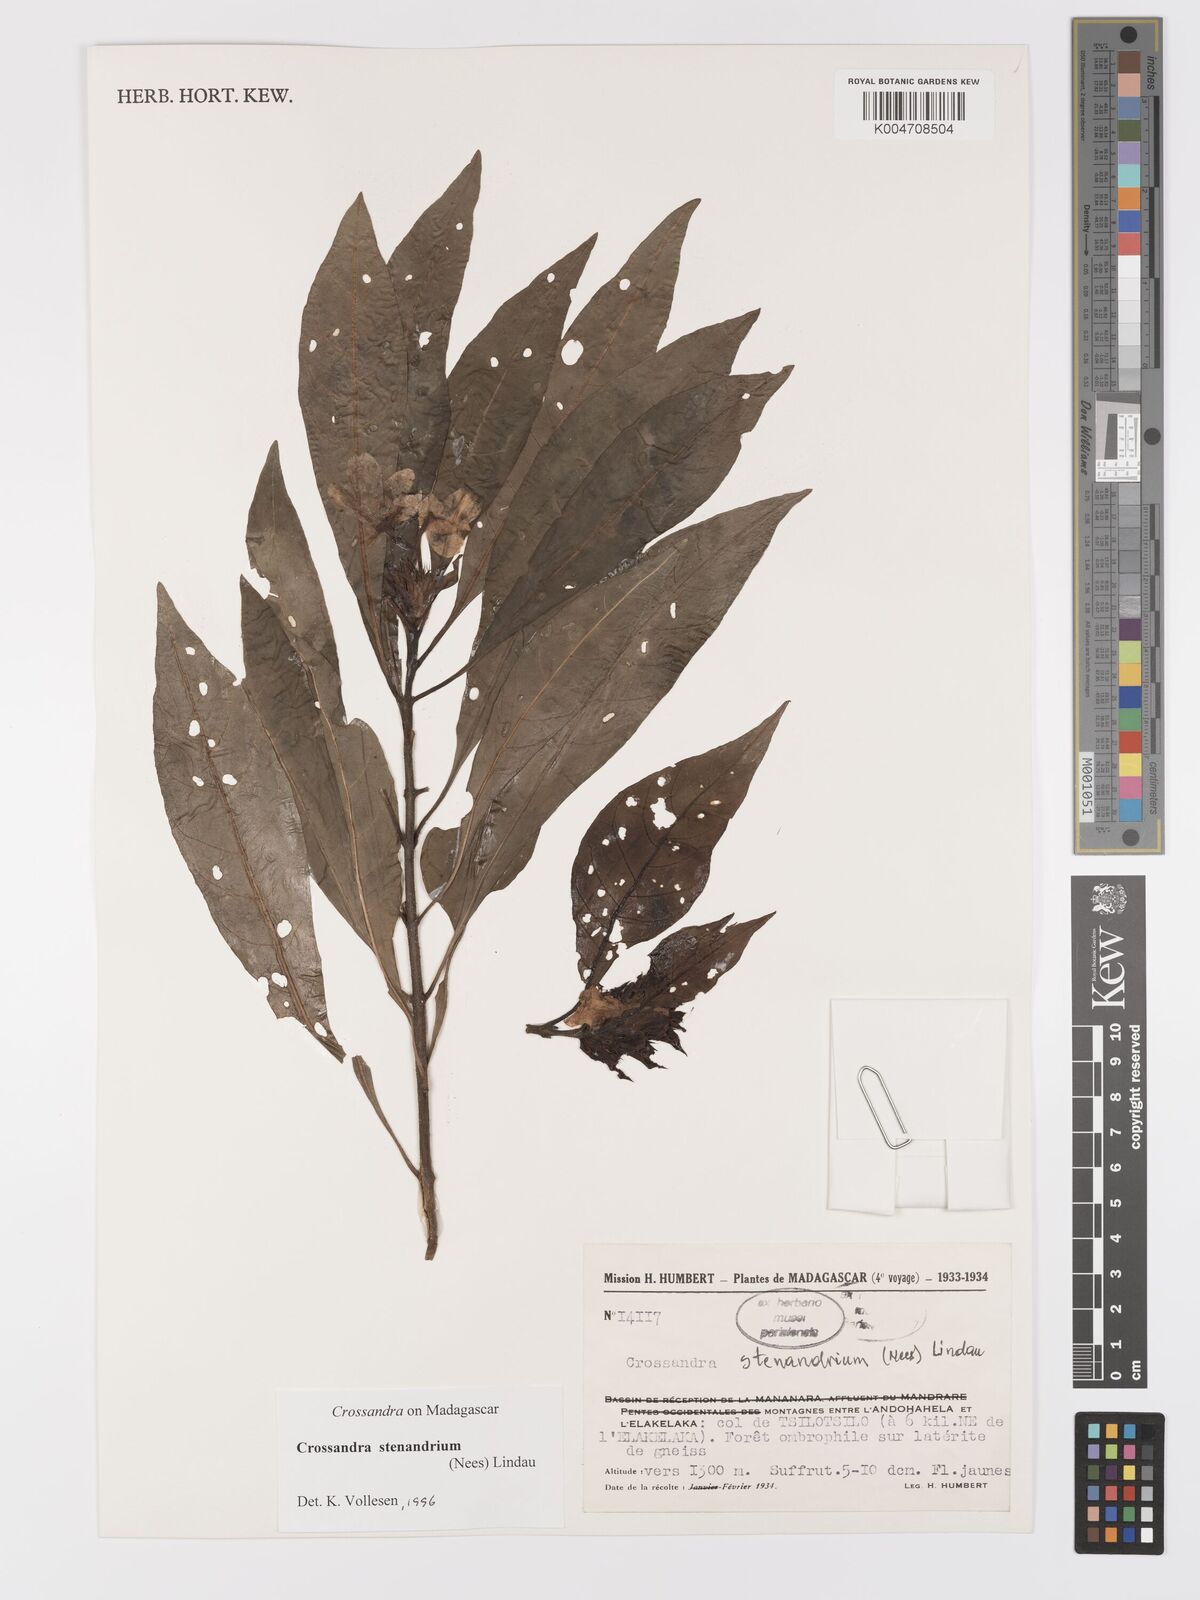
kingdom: Plantae
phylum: Tracheophyta
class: Magnoliopsida
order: Lamiales
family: Acanthaceae
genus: Crossandra
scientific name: Crossandra stenandrium
